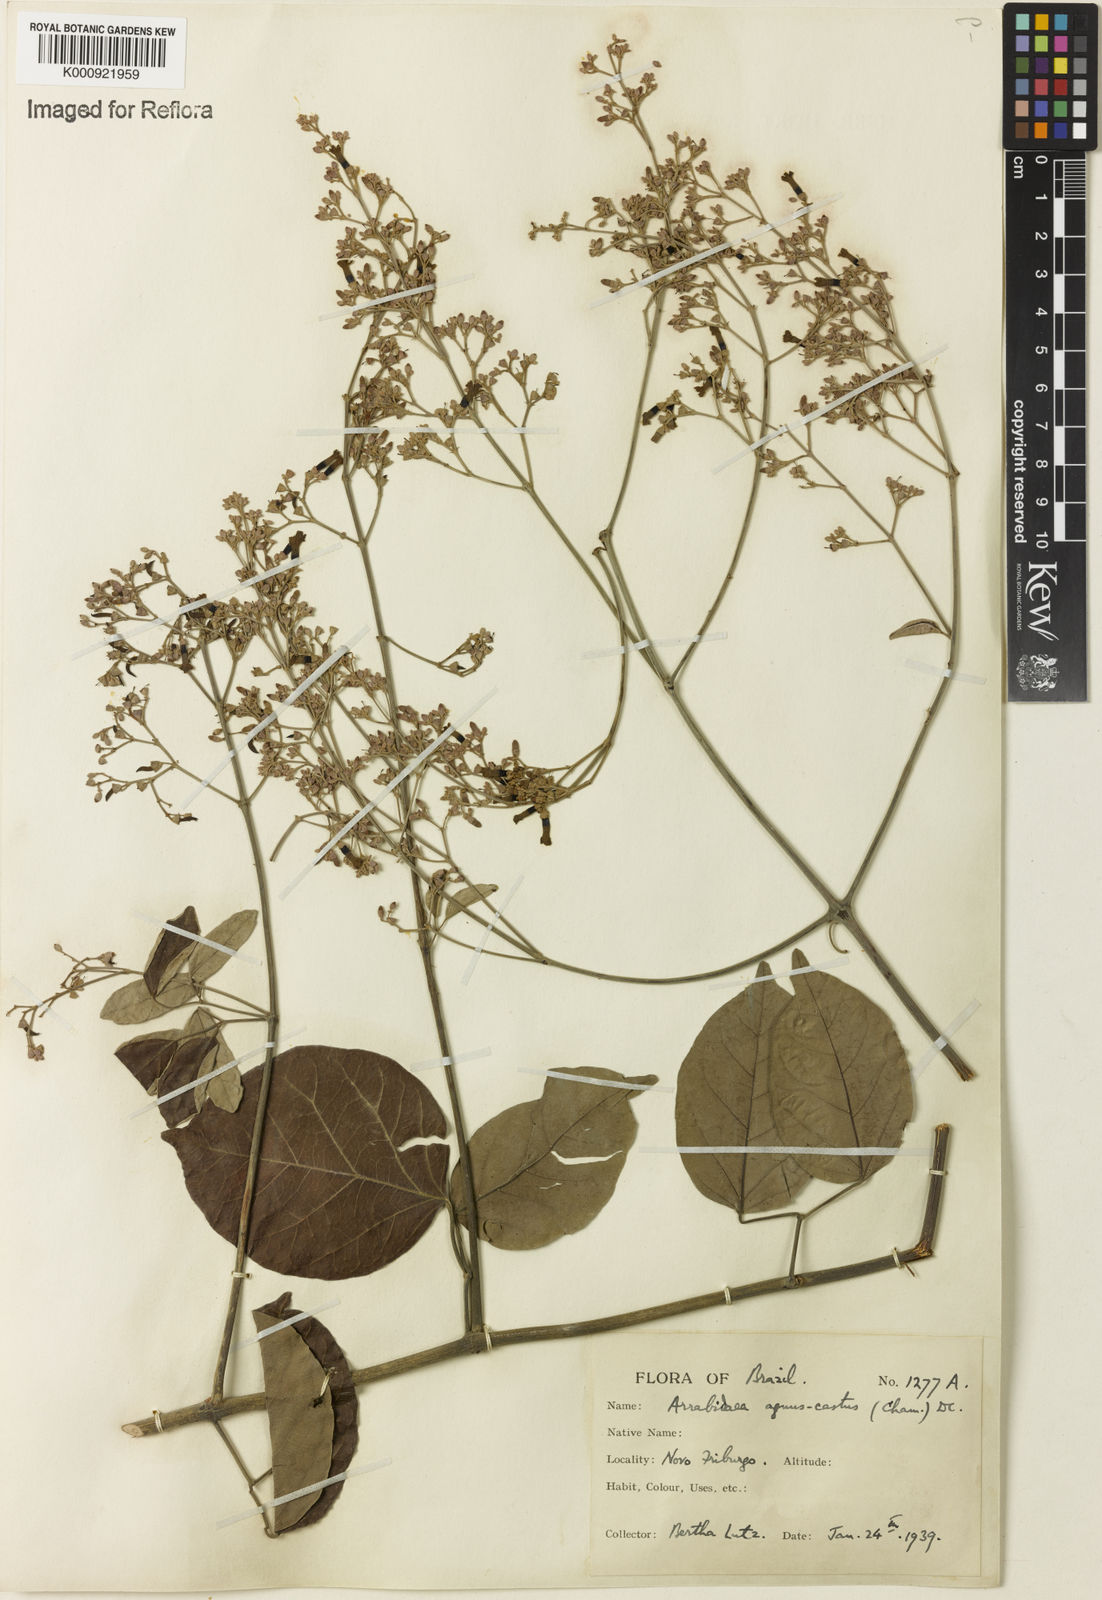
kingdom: Plantae
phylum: Tracheophyta
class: Magnoliopsida
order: Lamiales
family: Bignoniaceae
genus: Fridericia
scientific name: Fridericia rego
